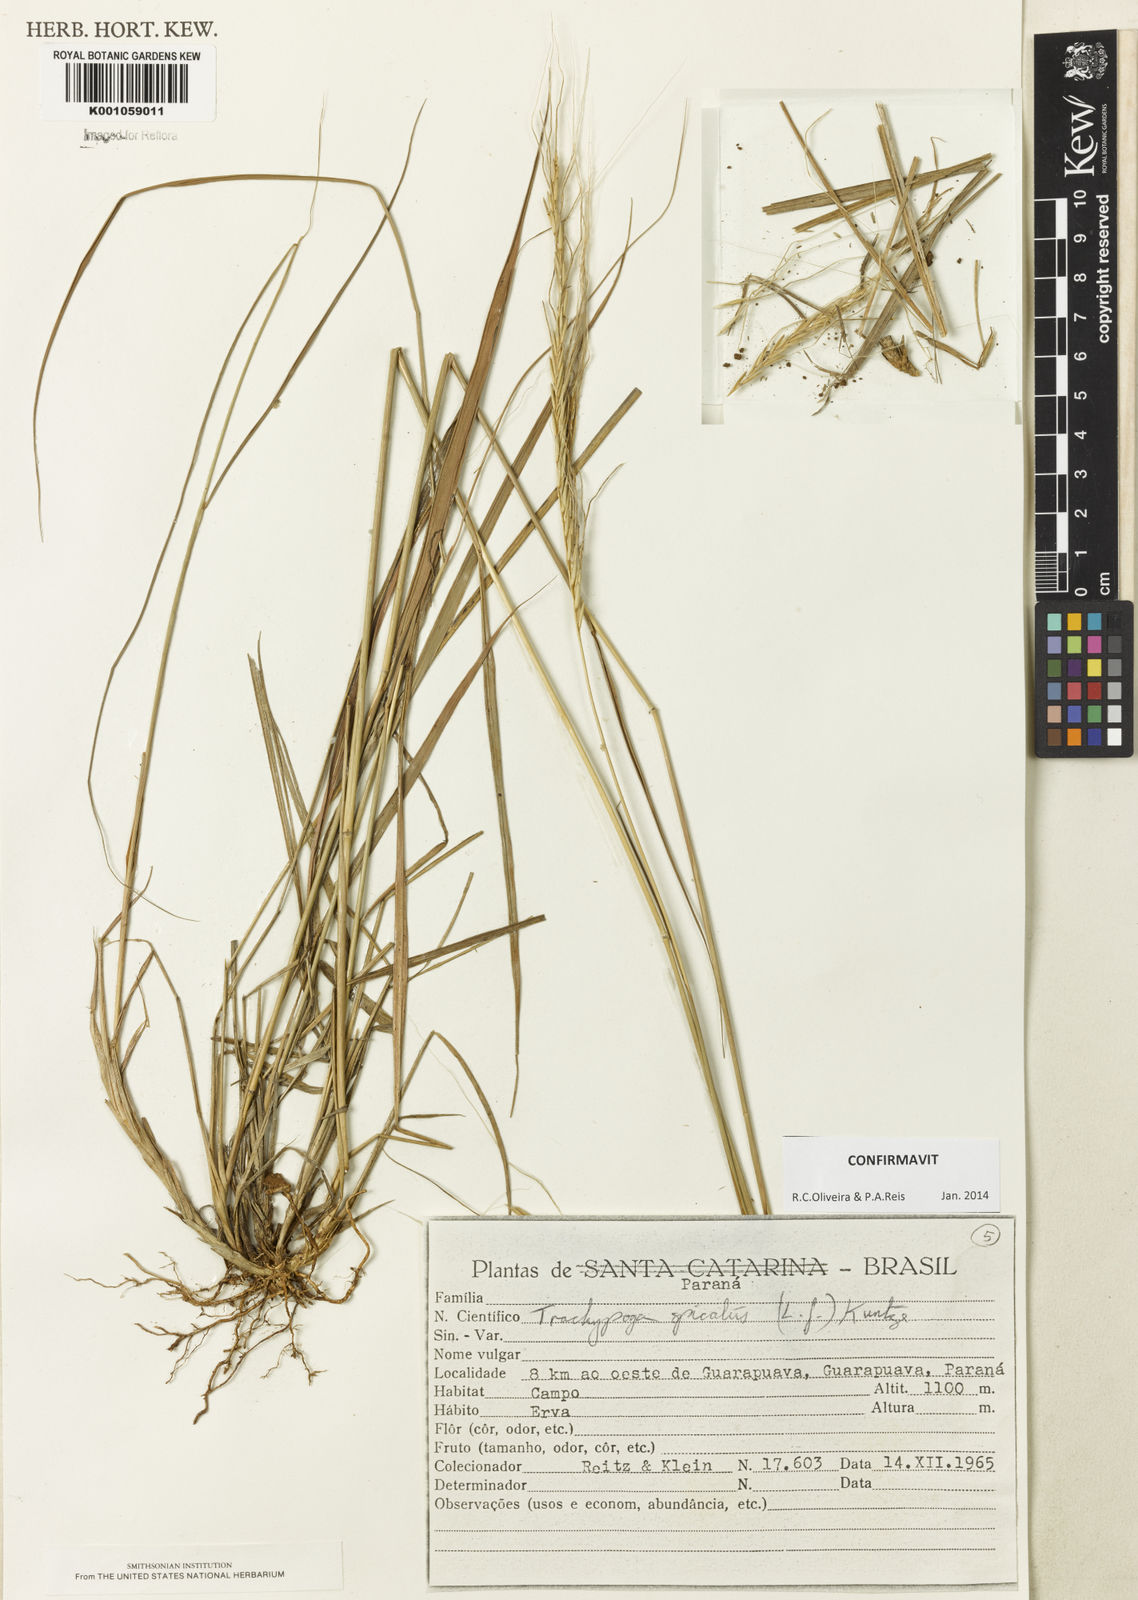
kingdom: Plantae
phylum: Tracheophyta
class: Liliopsida
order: Poales
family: Poaceae
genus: Trachypogon
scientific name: Trachypogon spicatus
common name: Crinkle-awn
